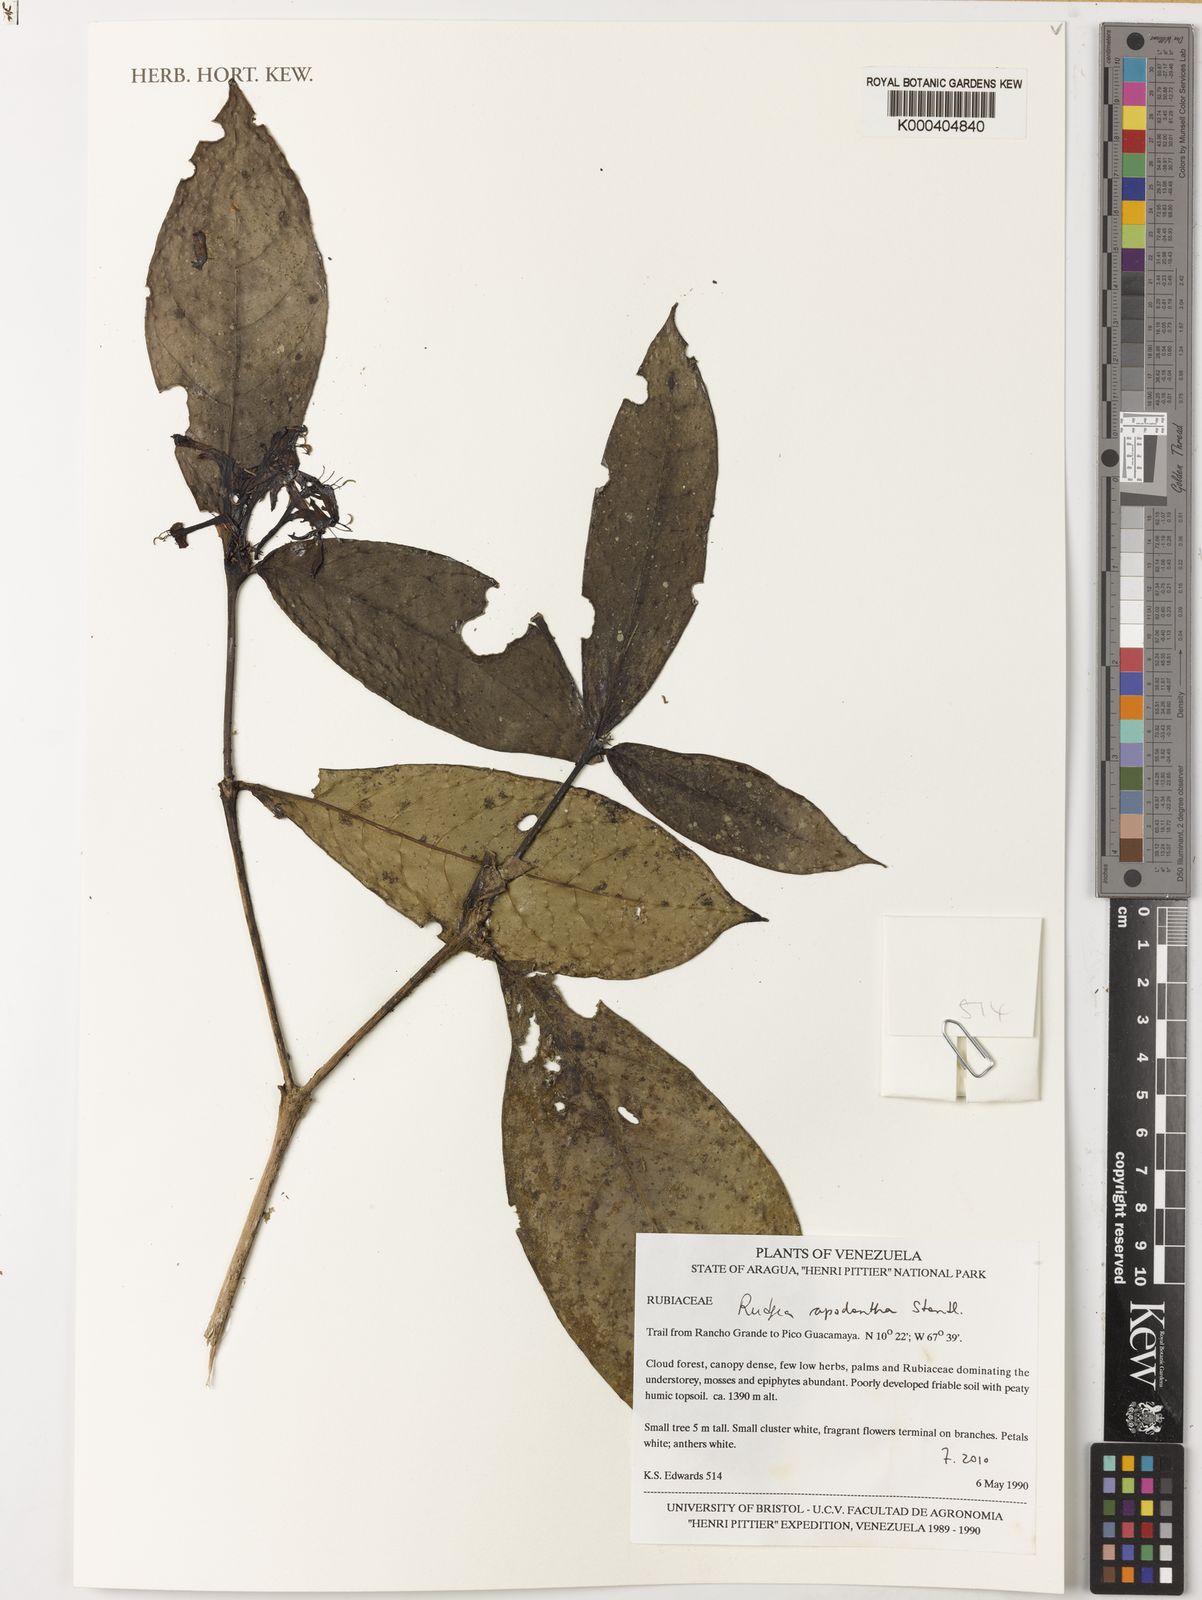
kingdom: Plantae
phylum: Tracheophyta
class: Magnoliopsida
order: Gentianales
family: Rubiaceae
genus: Rudgea
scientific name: Rudgea apodantha
